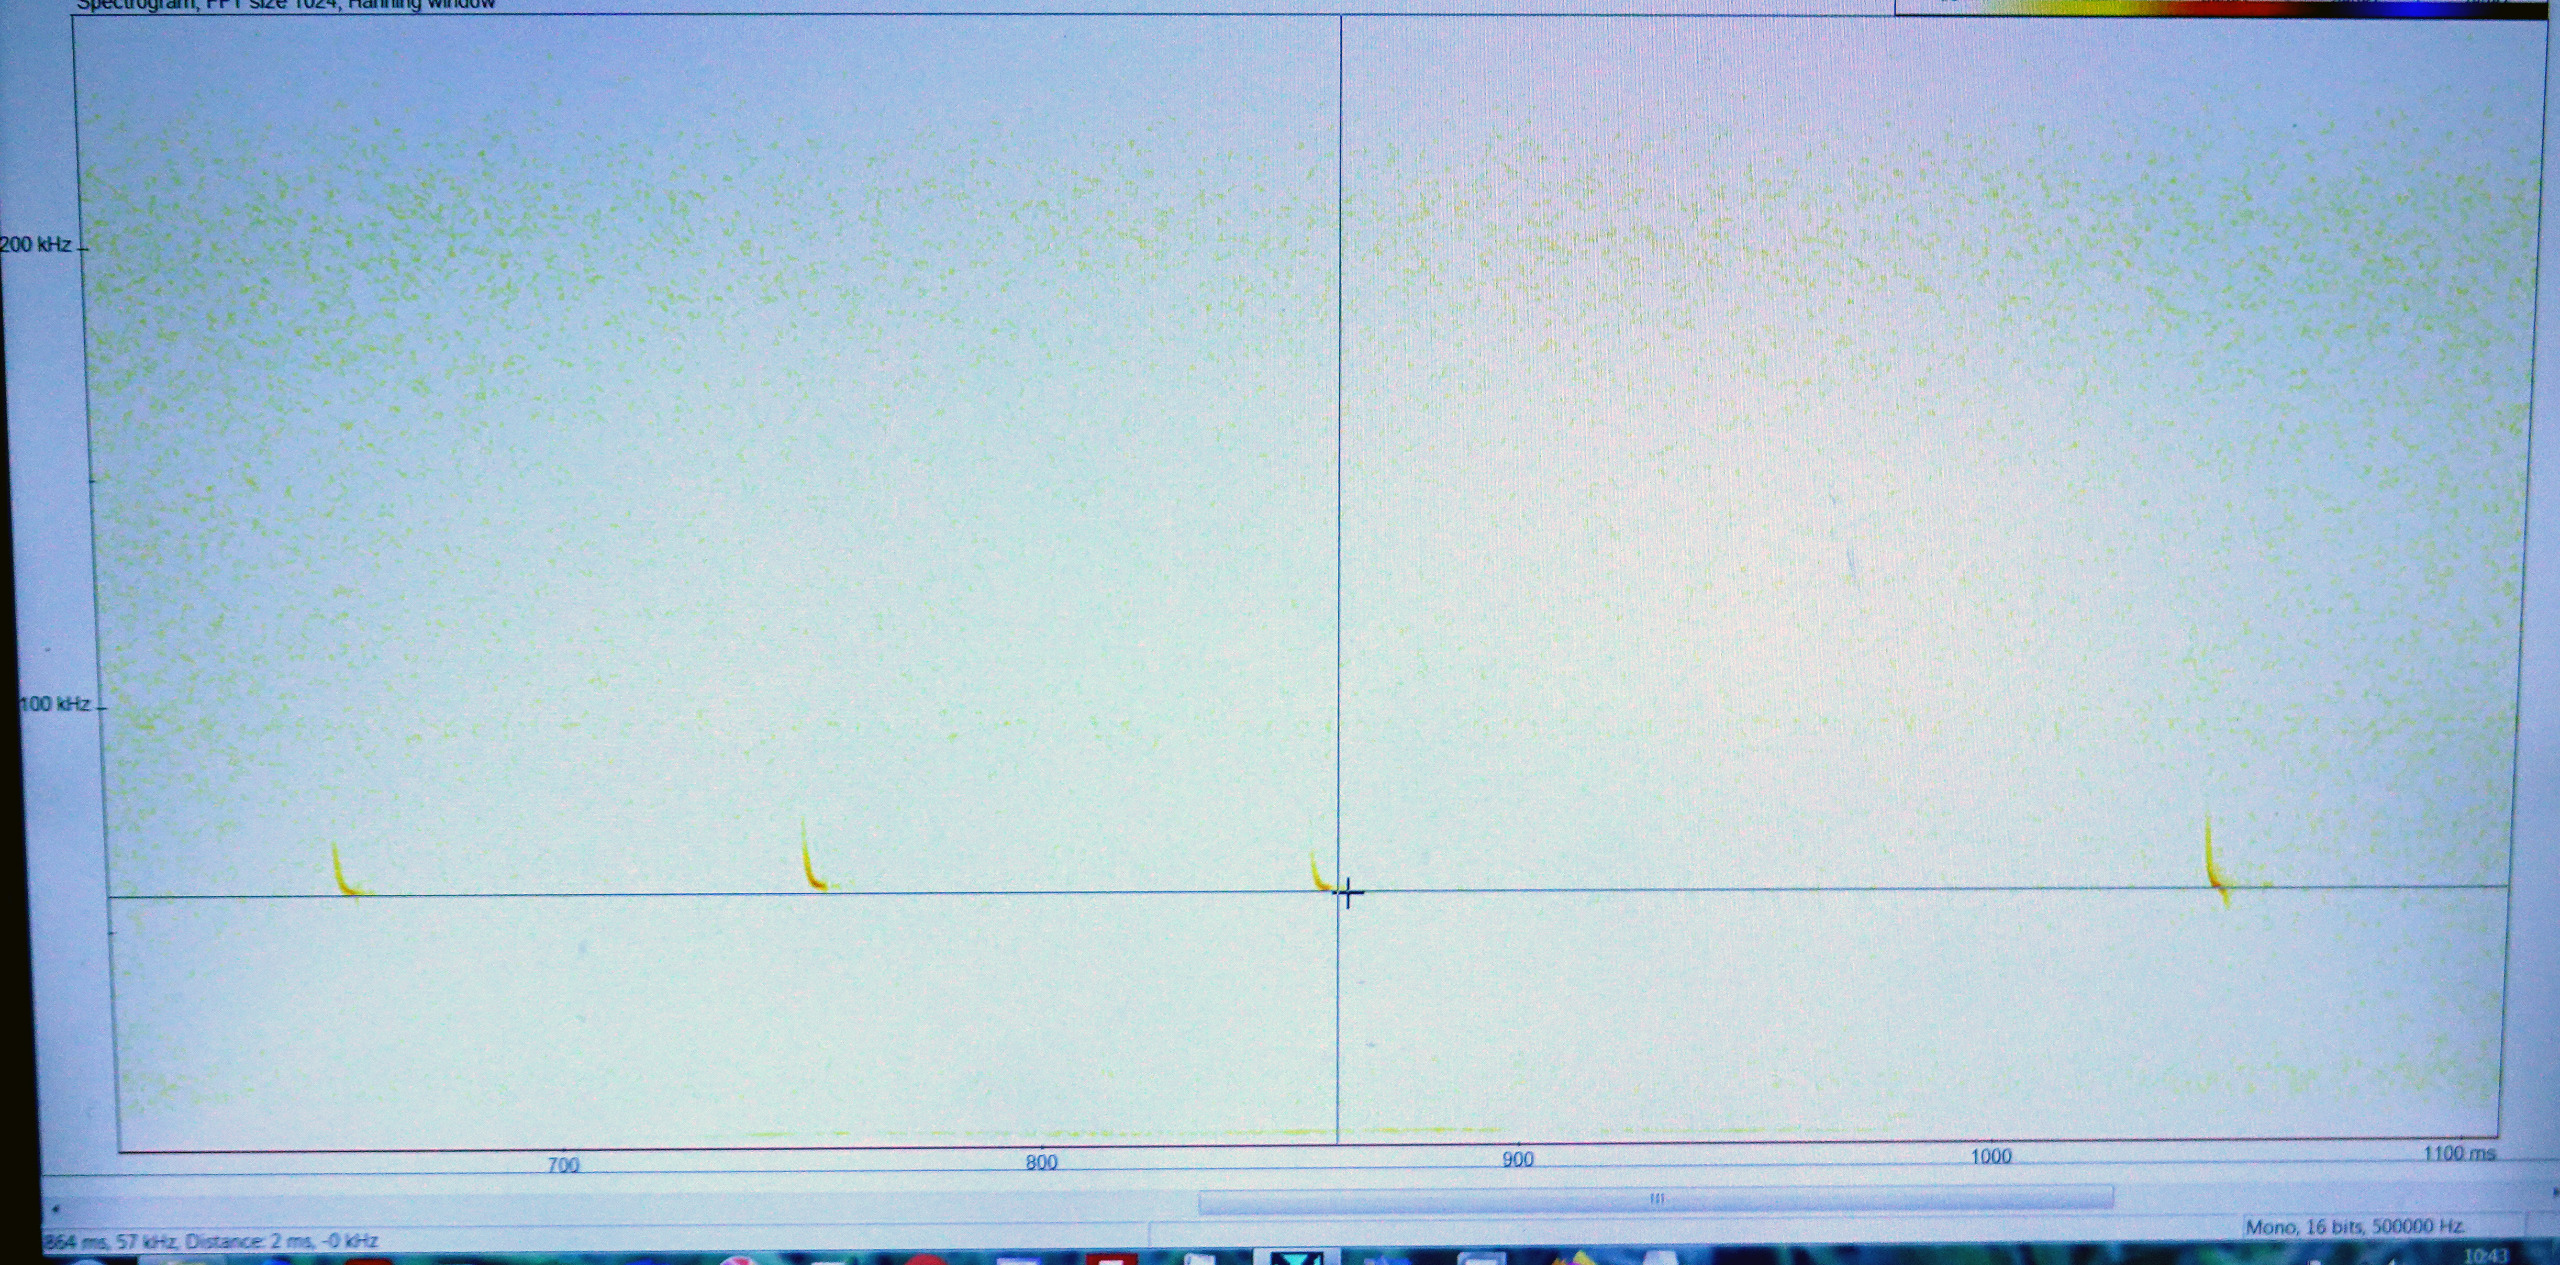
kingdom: Animalia
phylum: Chordata
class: Mammalia
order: Chiroptera
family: Vespertilionidae
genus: Pipistrellus
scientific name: Pipistrellus pygmaeus
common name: Dværgflagermus
